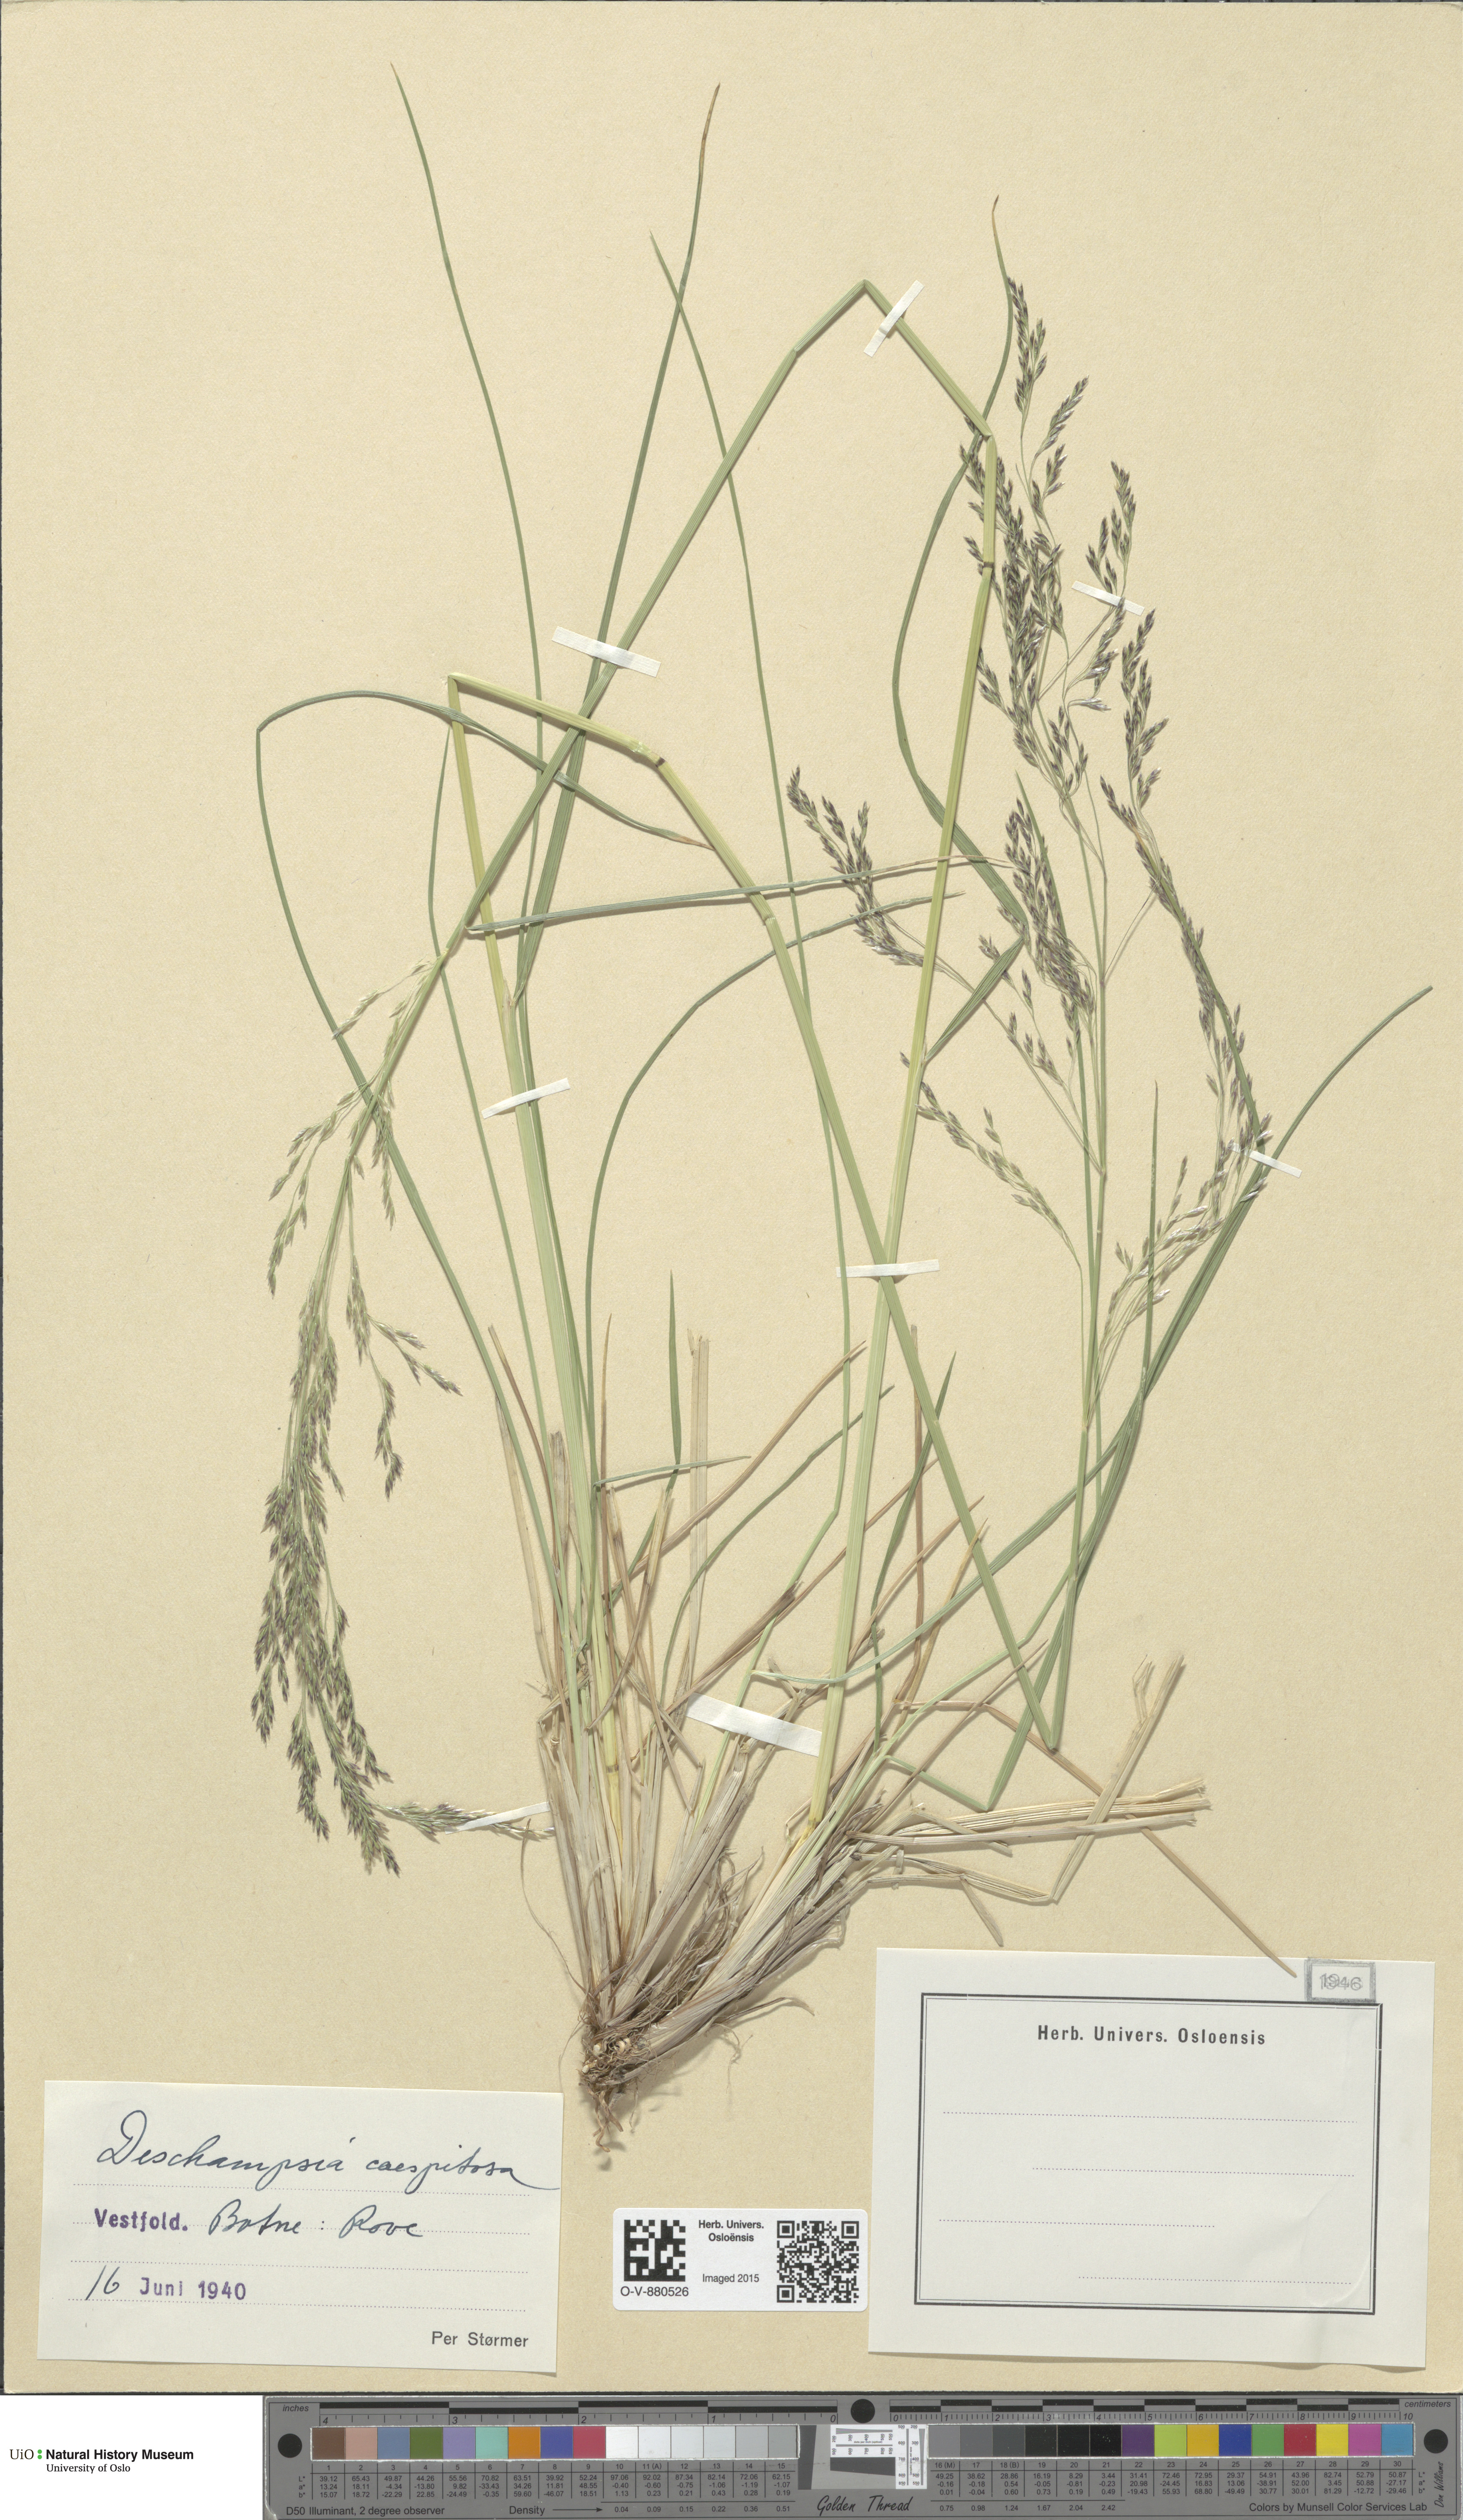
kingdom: Plantae
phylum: Tracheophyta
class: Liliopsida
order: Poales
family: Poaceae
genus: Deschampsia
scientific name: Deschampsia cespitosa
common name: Tufted hair-grass
